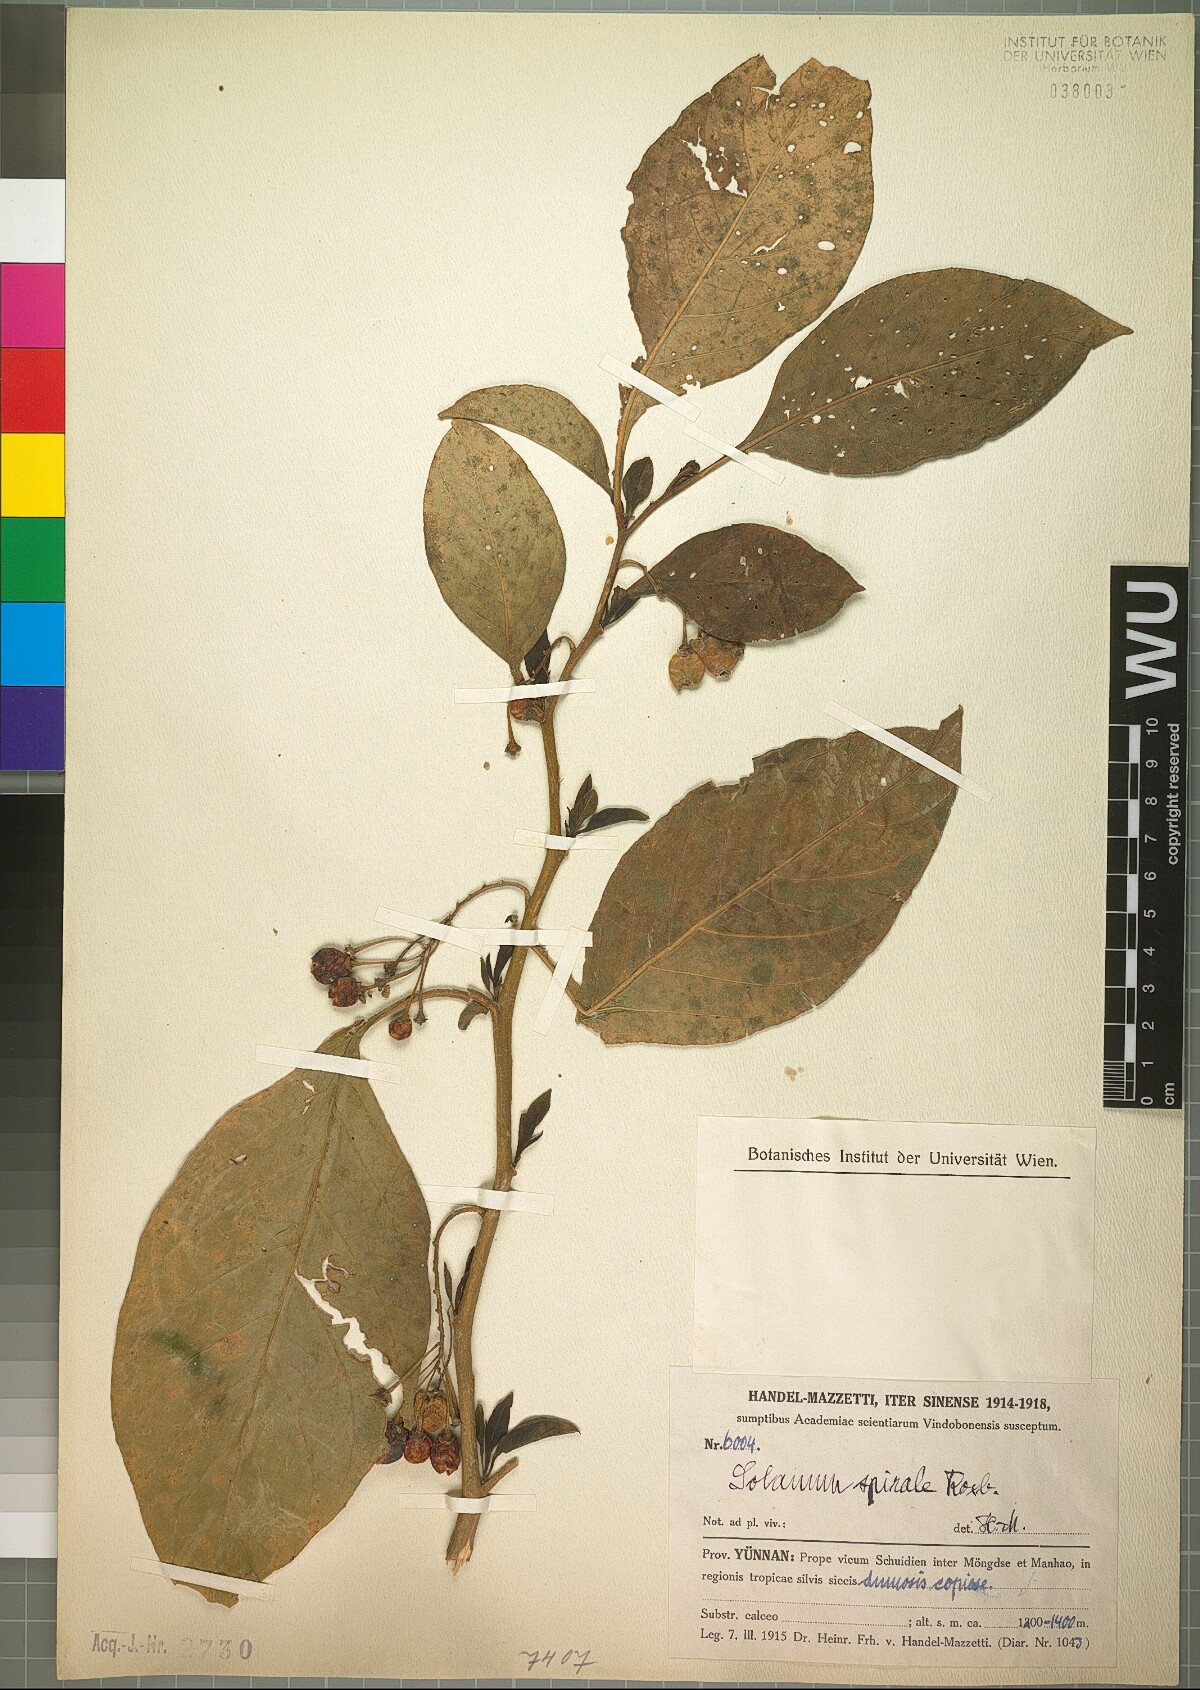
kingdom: Plantae
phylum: Tracheophyta
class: Magnoliopsida
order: Solanales
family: Solanaceae
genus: Solanum
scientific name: Solanum spirale
